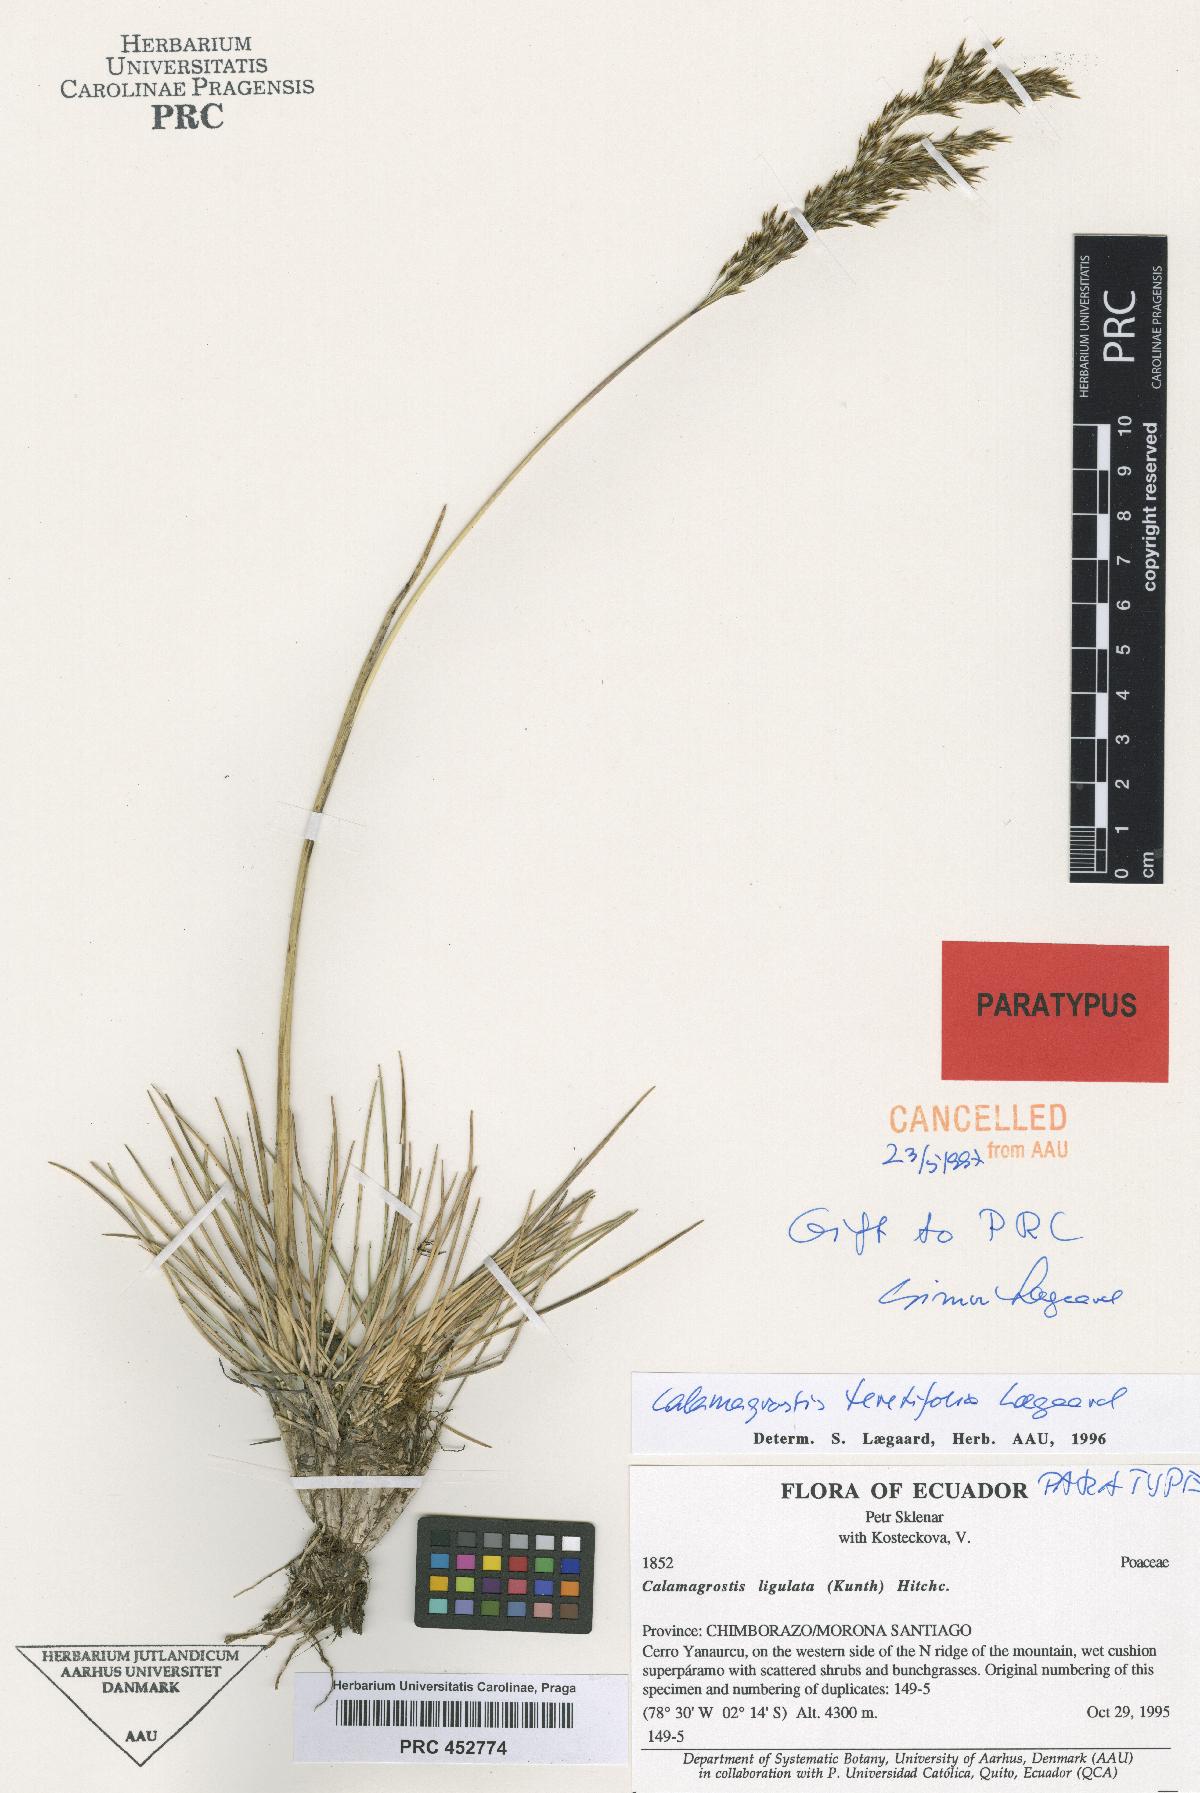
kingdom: Plantae
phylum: Tracheophyta
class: Liliopsida
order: Poales
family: Poaceae
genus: Calamagrostis
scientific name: Calamagrostis ligulata
